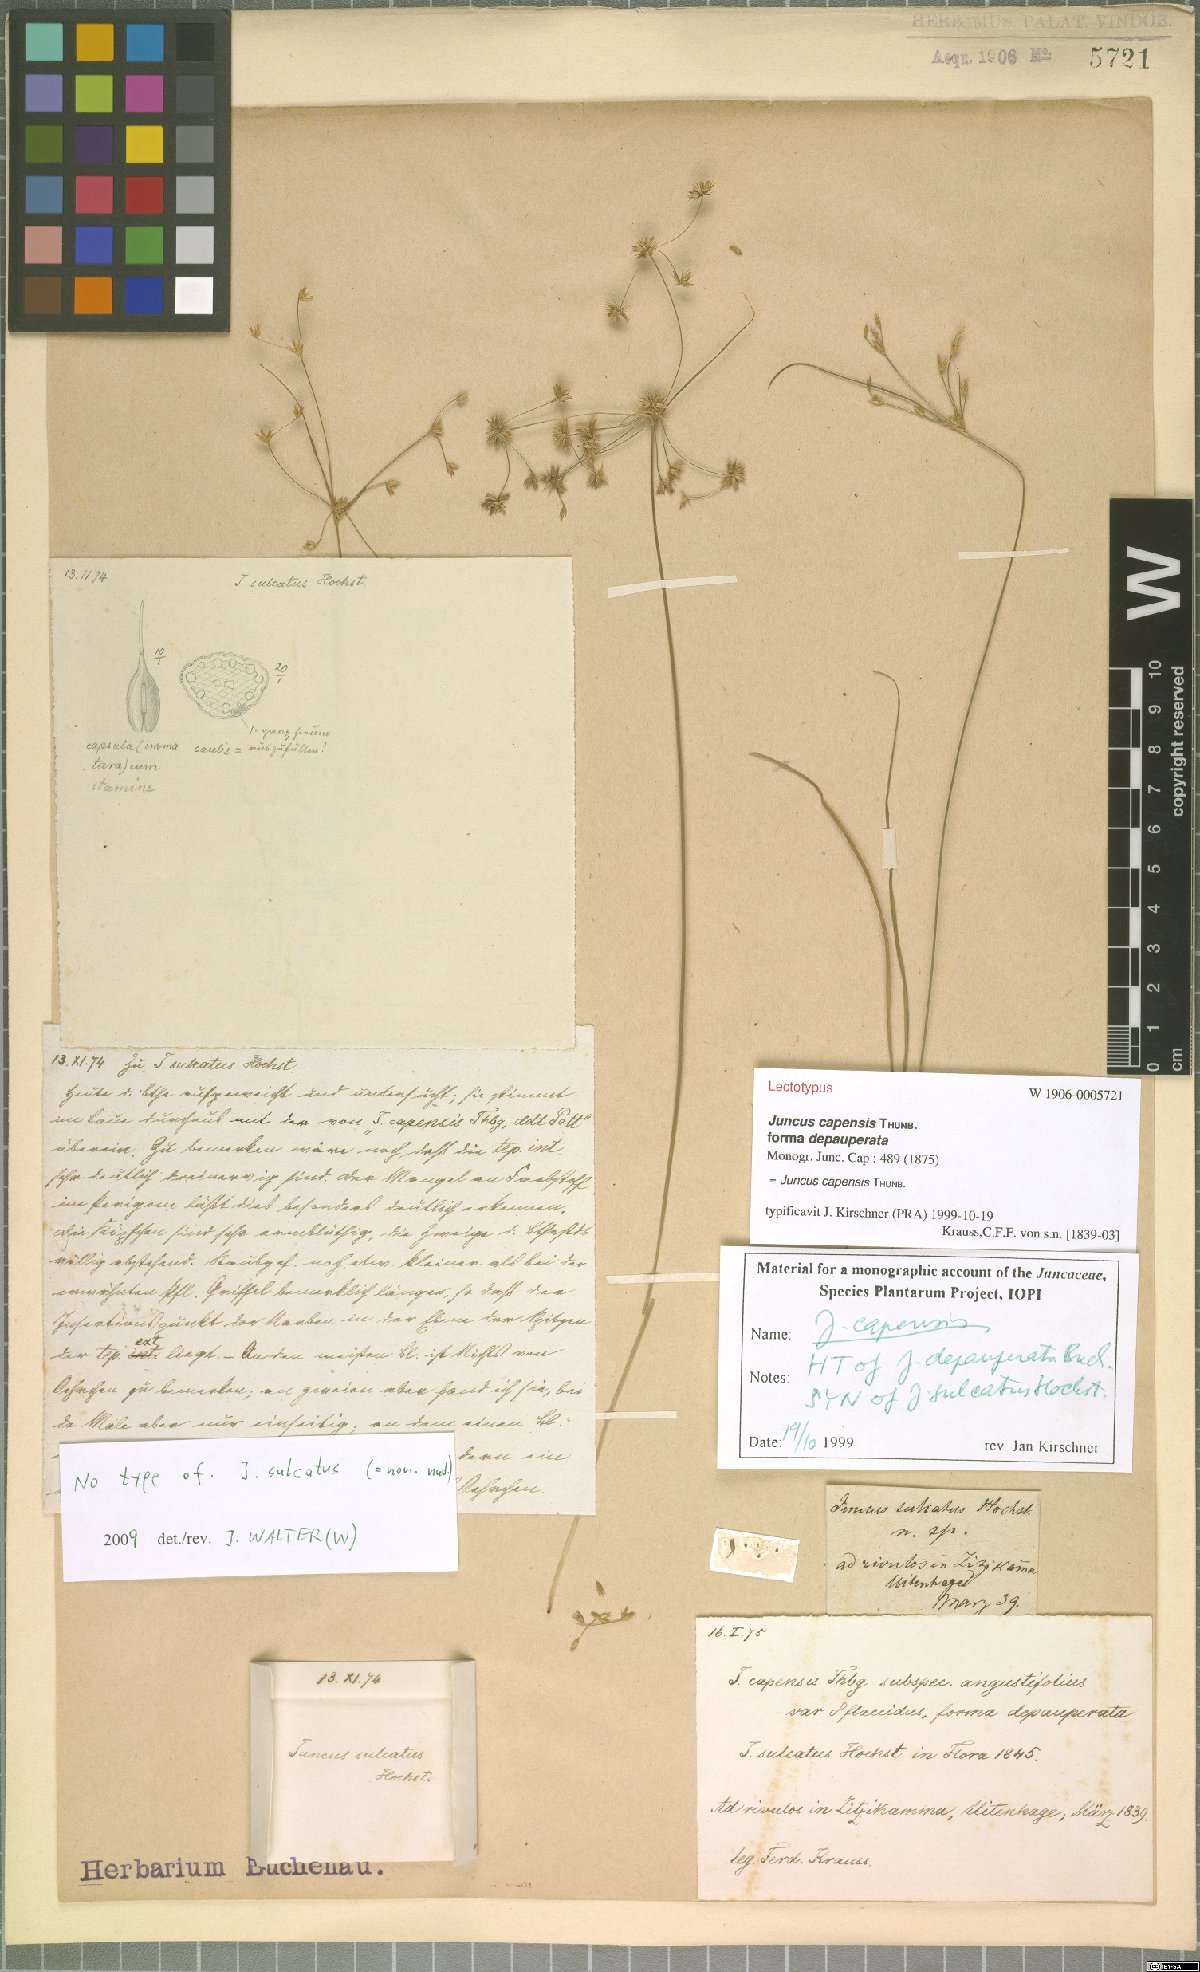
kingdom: Plantae
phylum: Tracheophyta
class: Liliopsida
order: Poales
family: Juncaceae
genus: Juncus
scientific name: Juncus capensis
